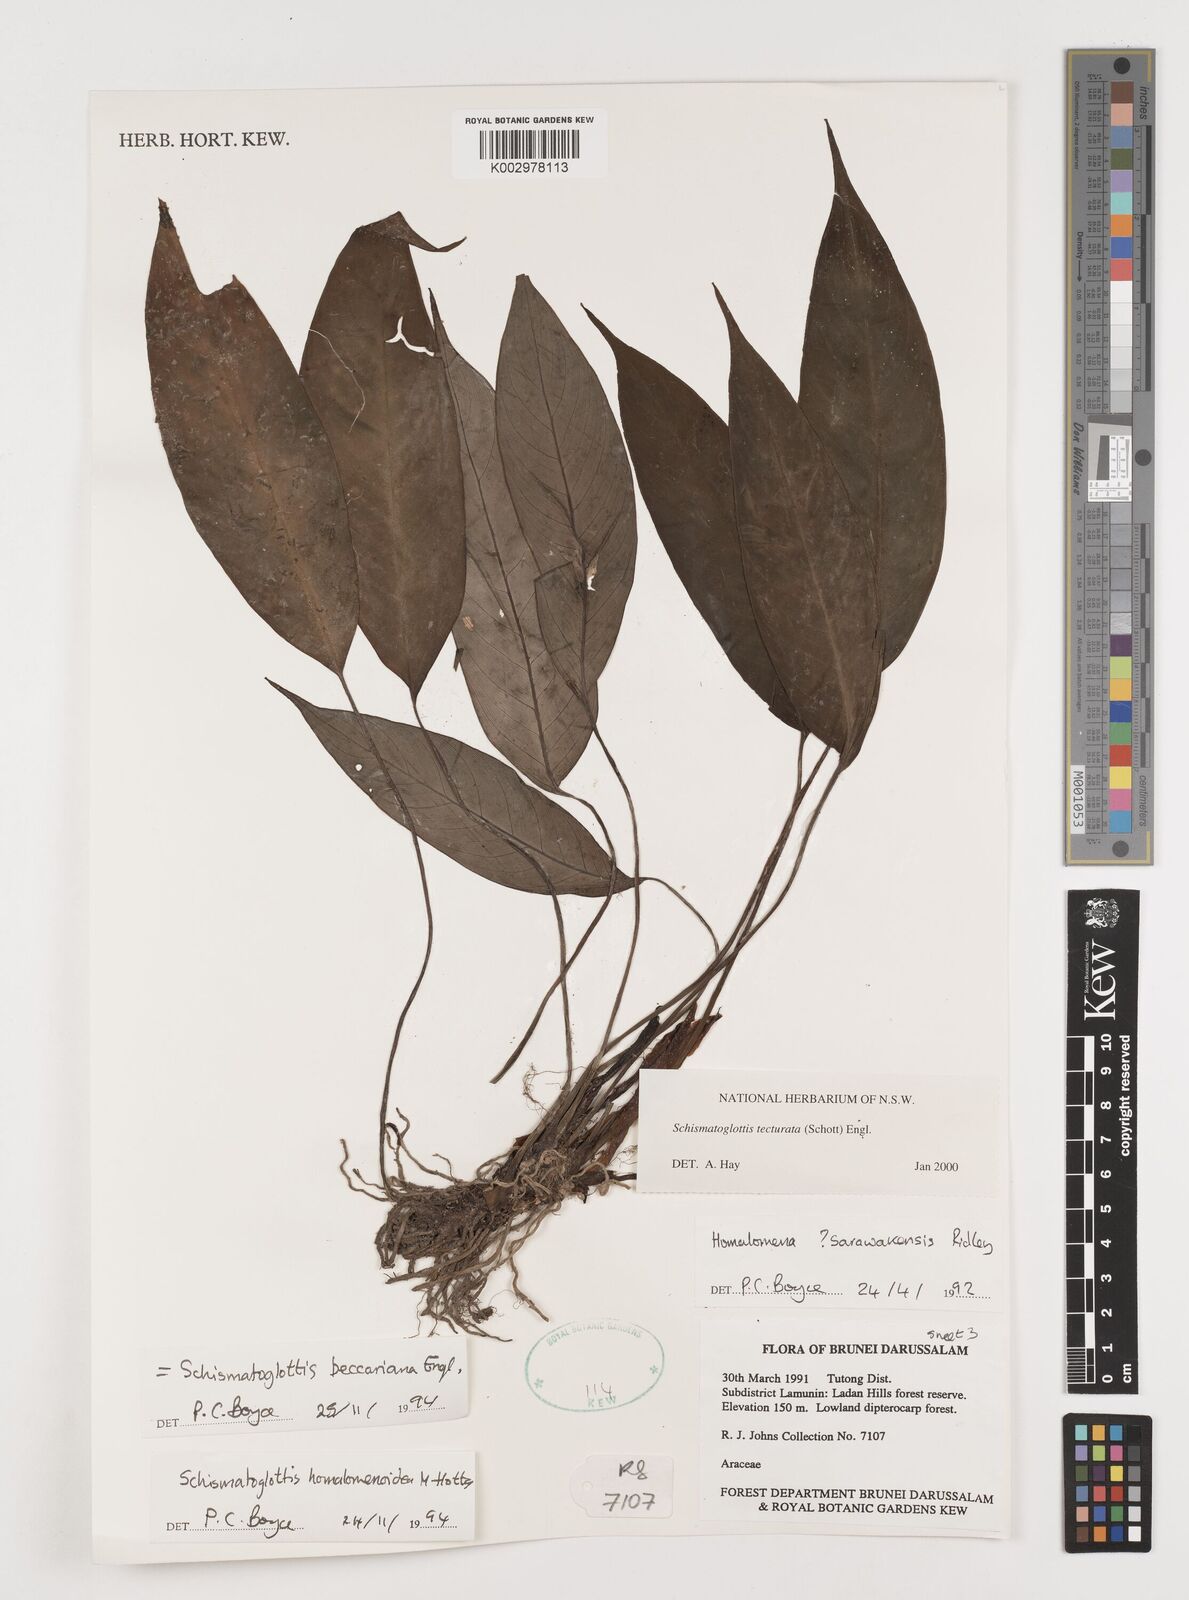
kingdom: Plantae
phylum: Tracheophyta
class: Liliopsida
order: Zingiberales
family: Costaceae
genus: Colobogynium
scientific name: Colobogynium variegatum
